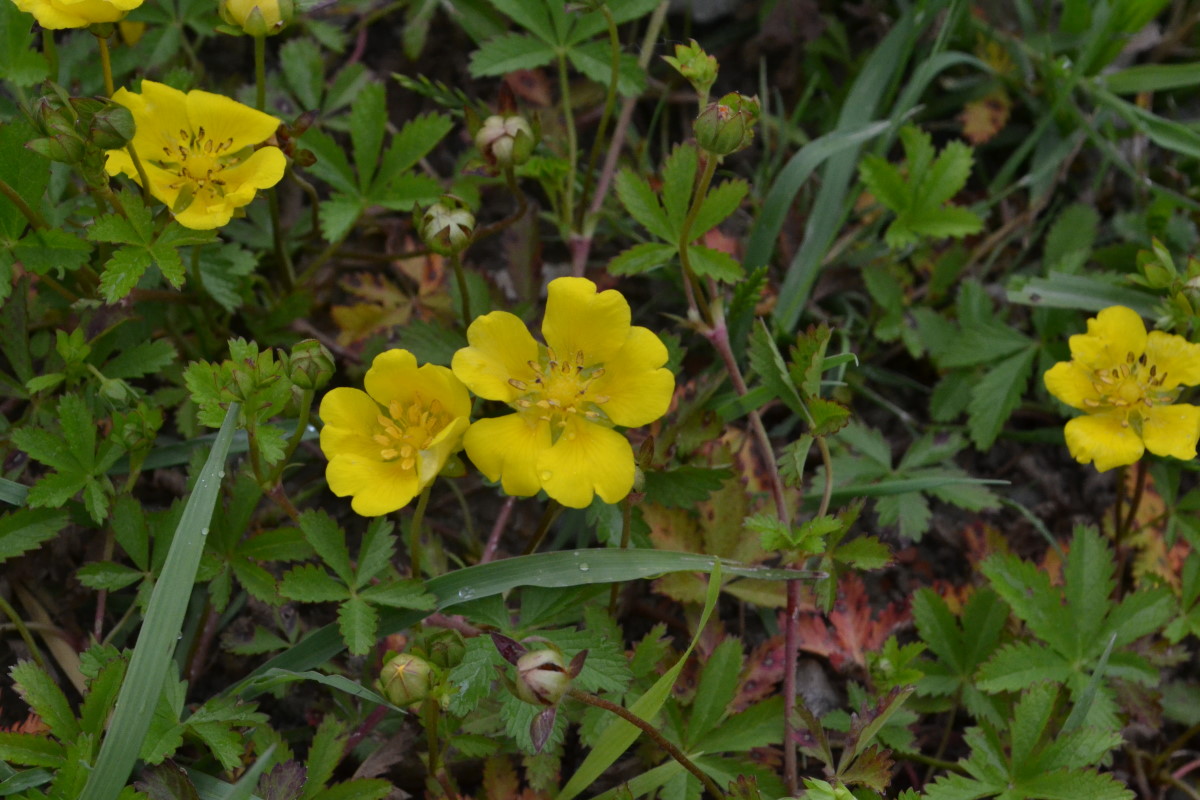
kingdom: Plantae
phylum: Tracheophyta
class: Magnoliopsida
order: Rosales
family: Rosaceae
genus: Potentilla
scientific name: Potentilla reptans
